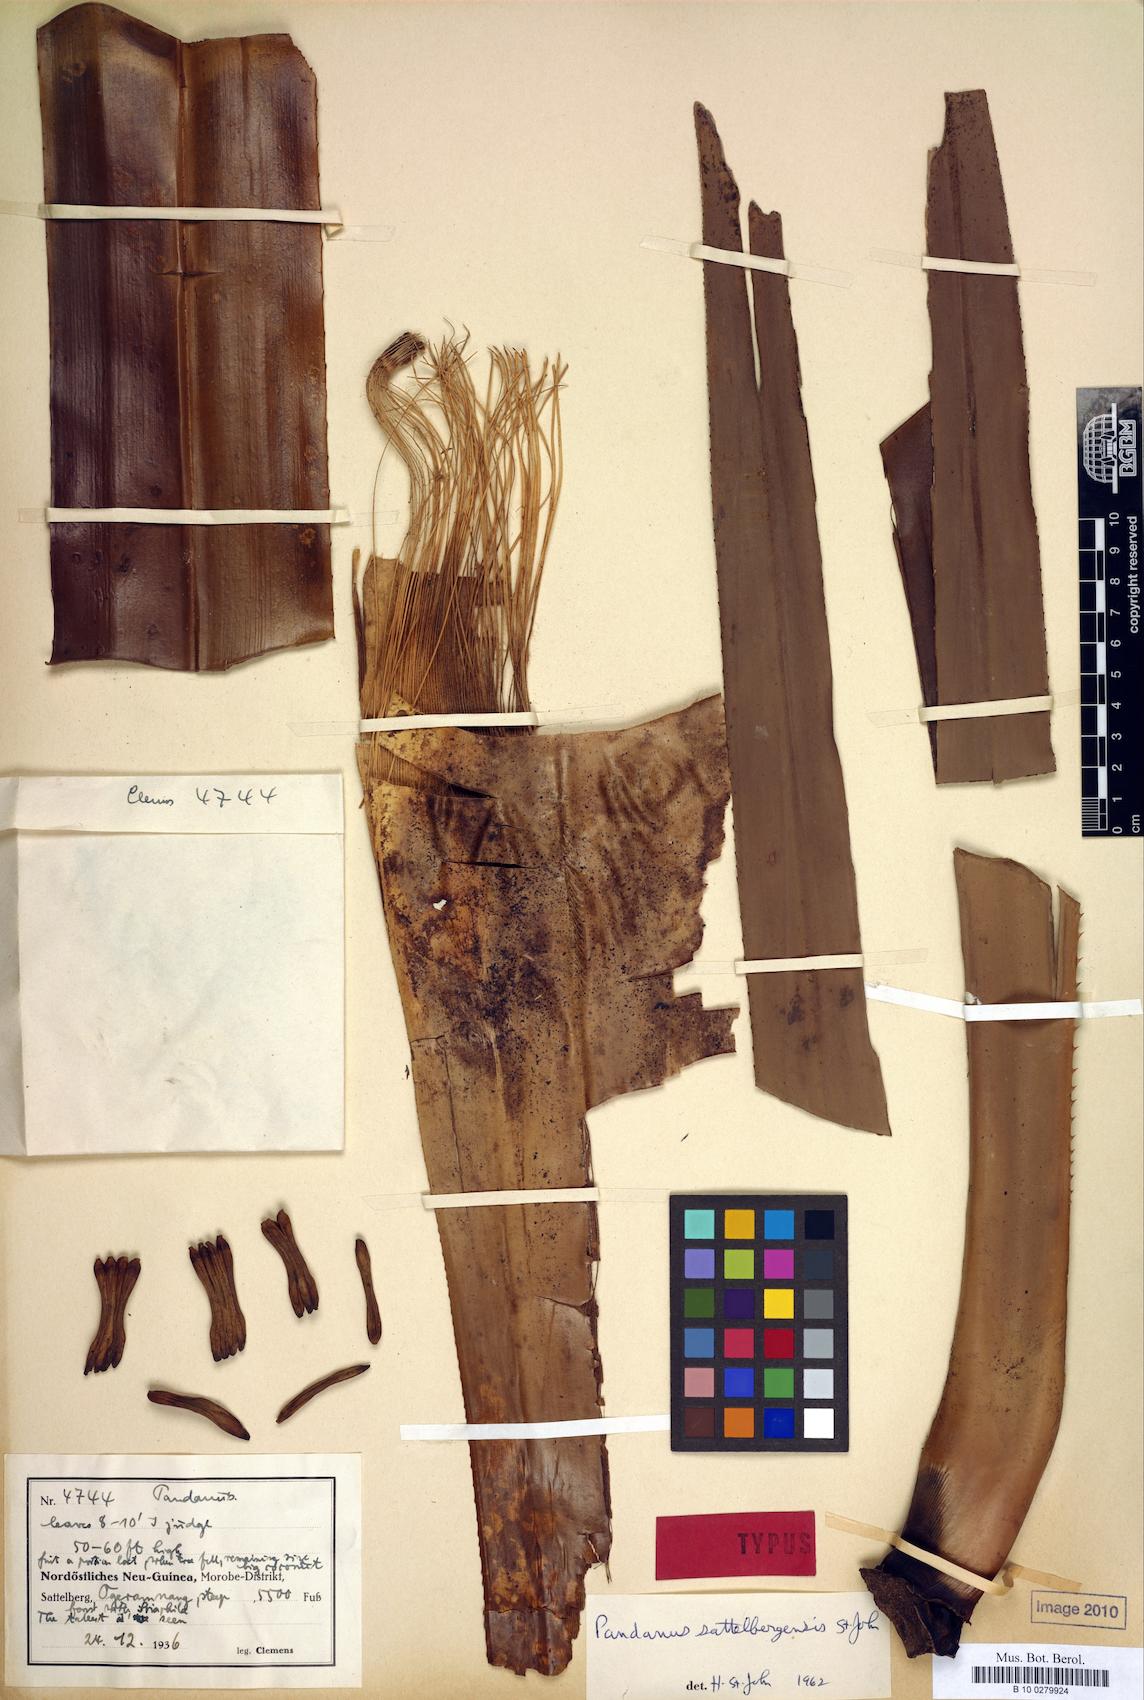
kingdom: Plantae
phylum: Tracheophyta
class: Liliopsida
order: Pandanales
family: Pandanaceae
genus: Pandanus
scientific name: Pandanus aggregatus
